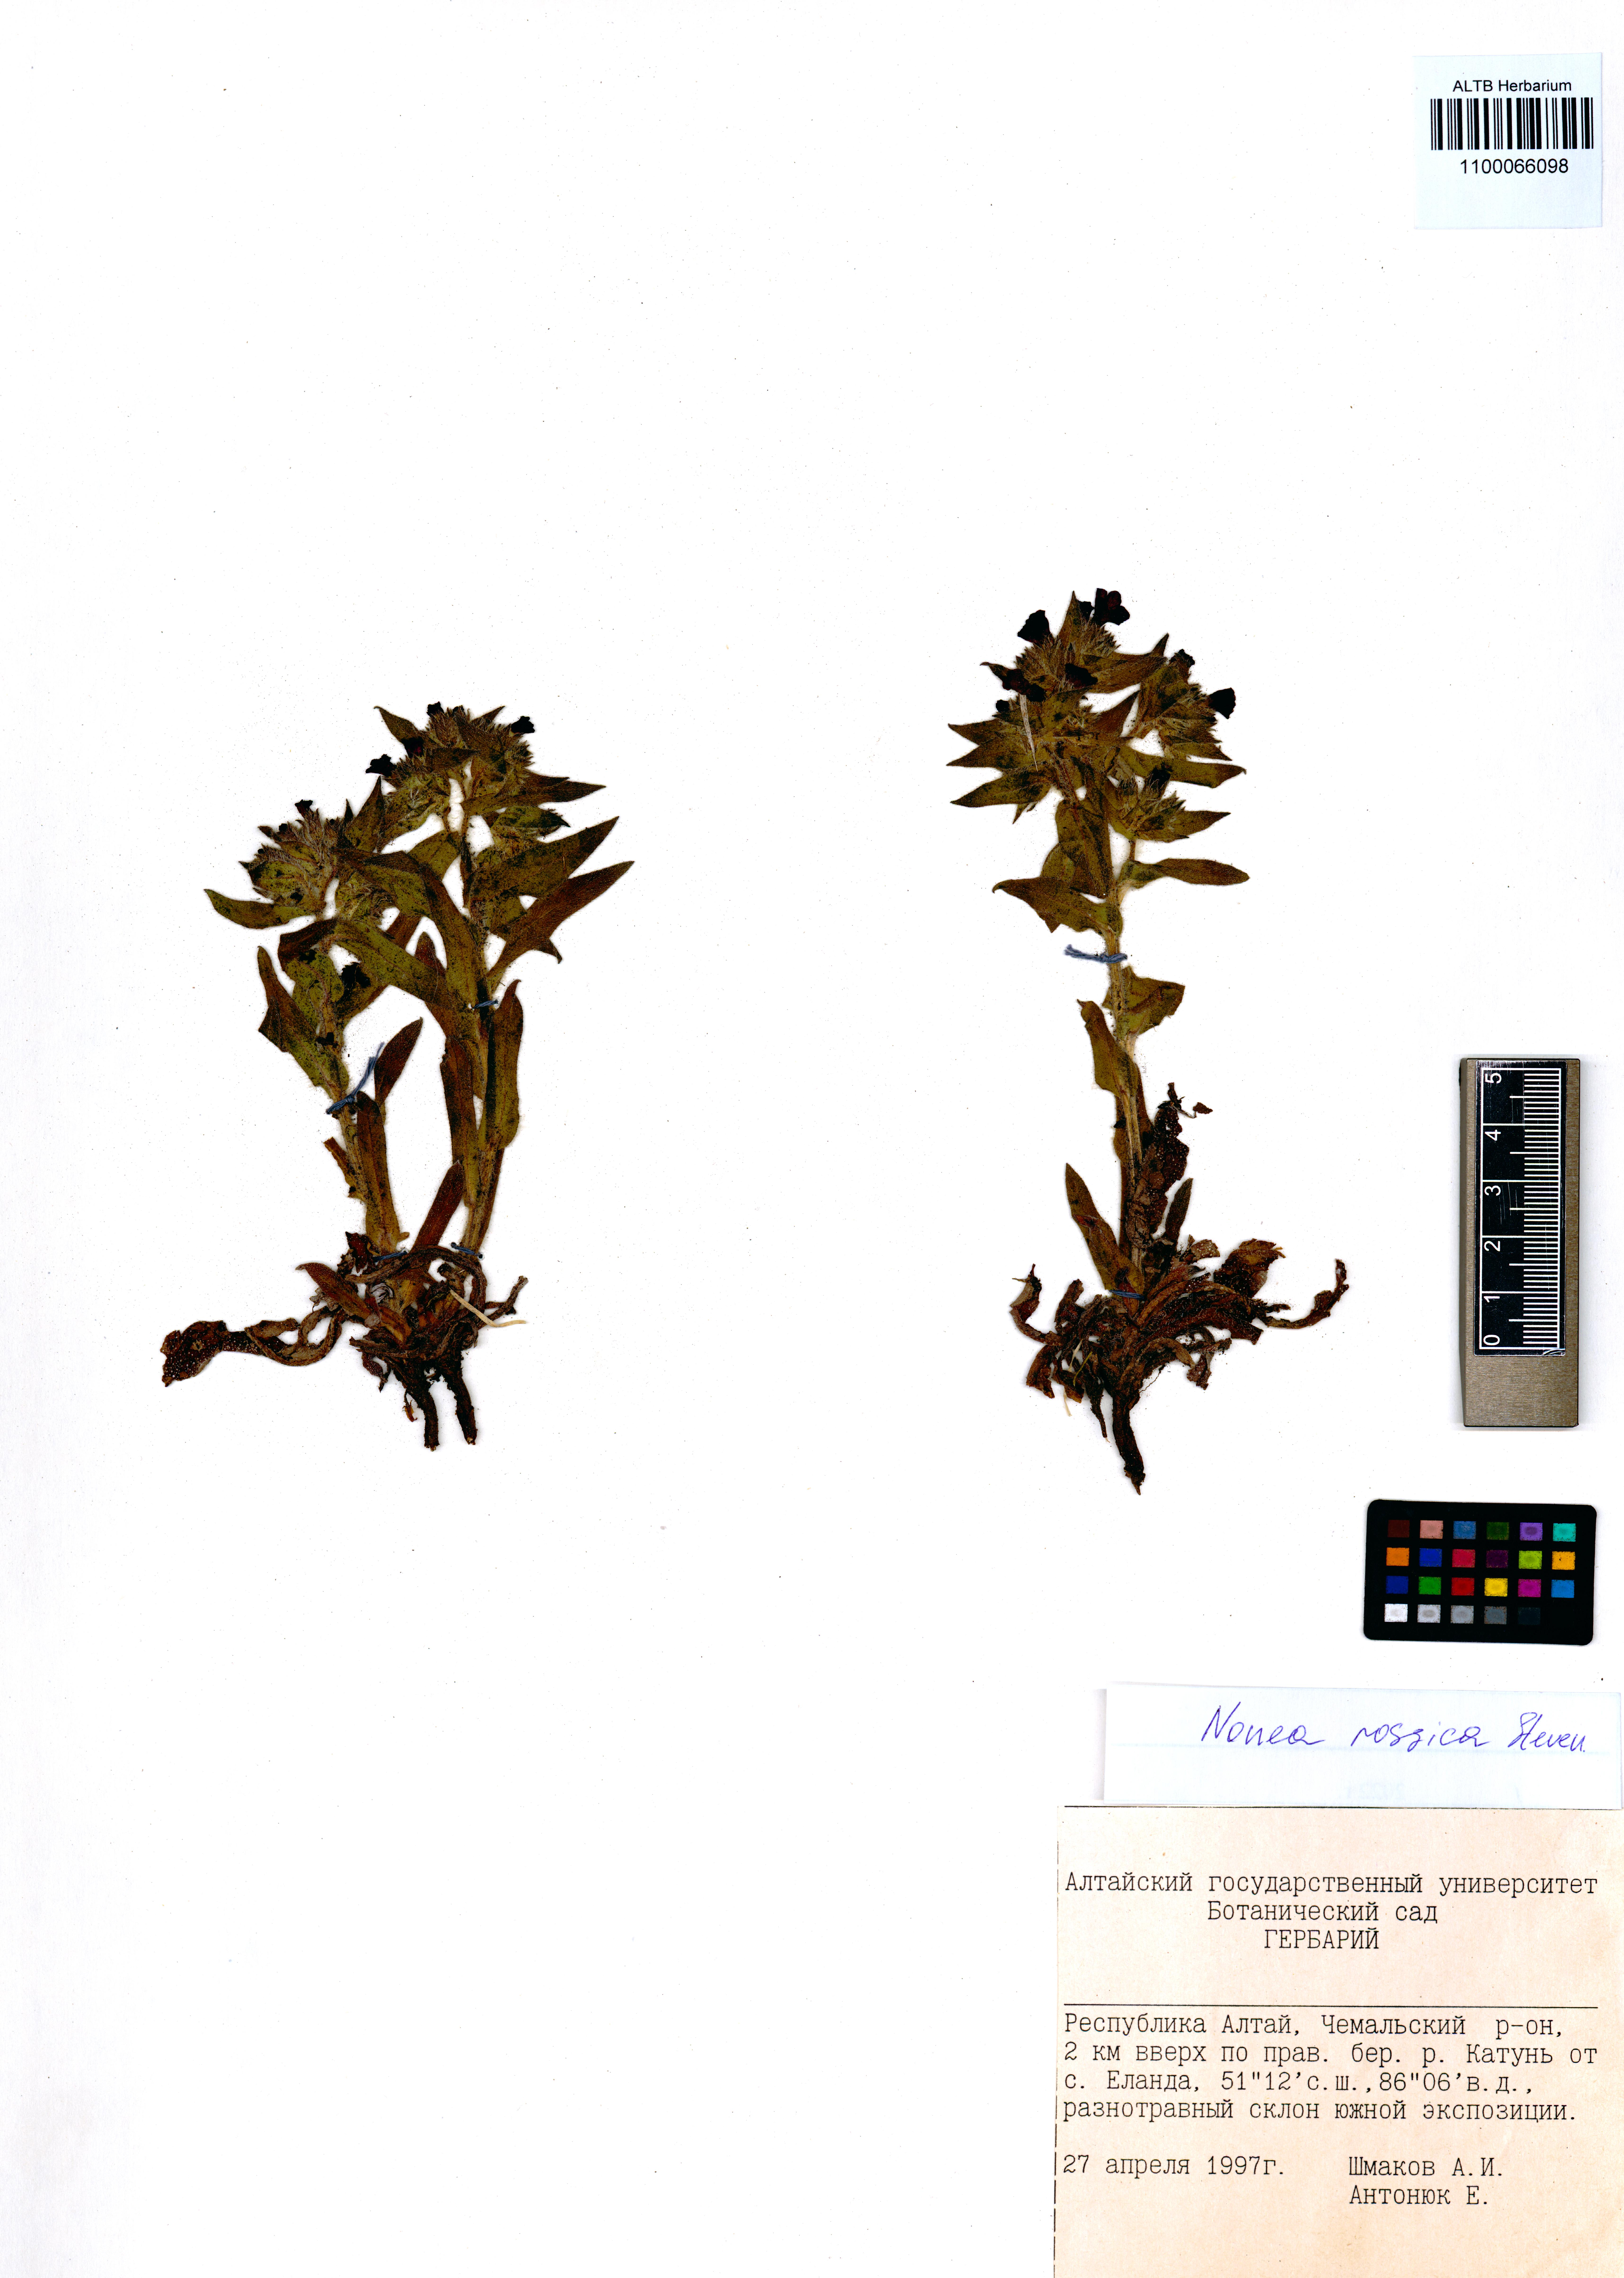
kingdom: Plantae
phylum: Tracheophyta
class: Magnoliopsida
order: Boraginales
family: Boraginaceae
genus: Nonea
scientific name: Nonea pulla
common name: Brown nonea
